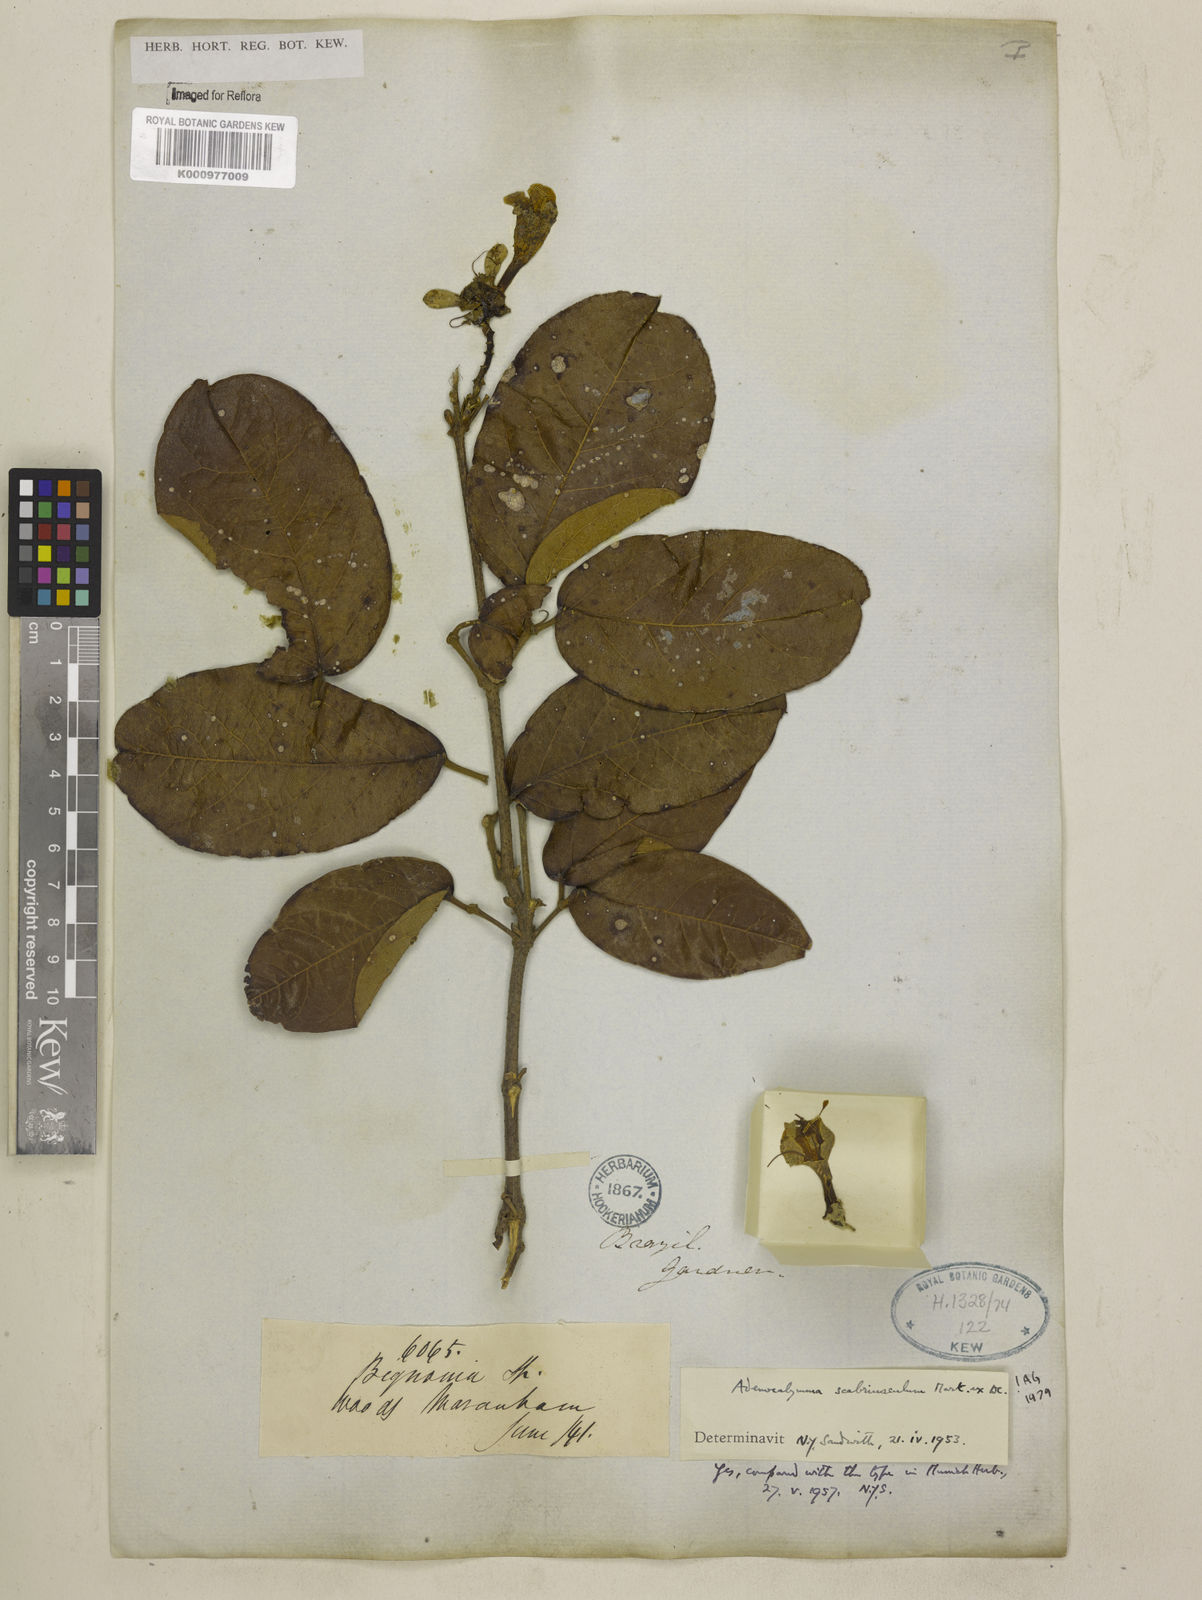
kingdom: Plantae
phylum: Tracheophyta
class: Magnoliopsida
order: Lamiales
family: Bignoniaceae
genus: Adenocalymma
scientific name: Adenocalymma scabriusculum
